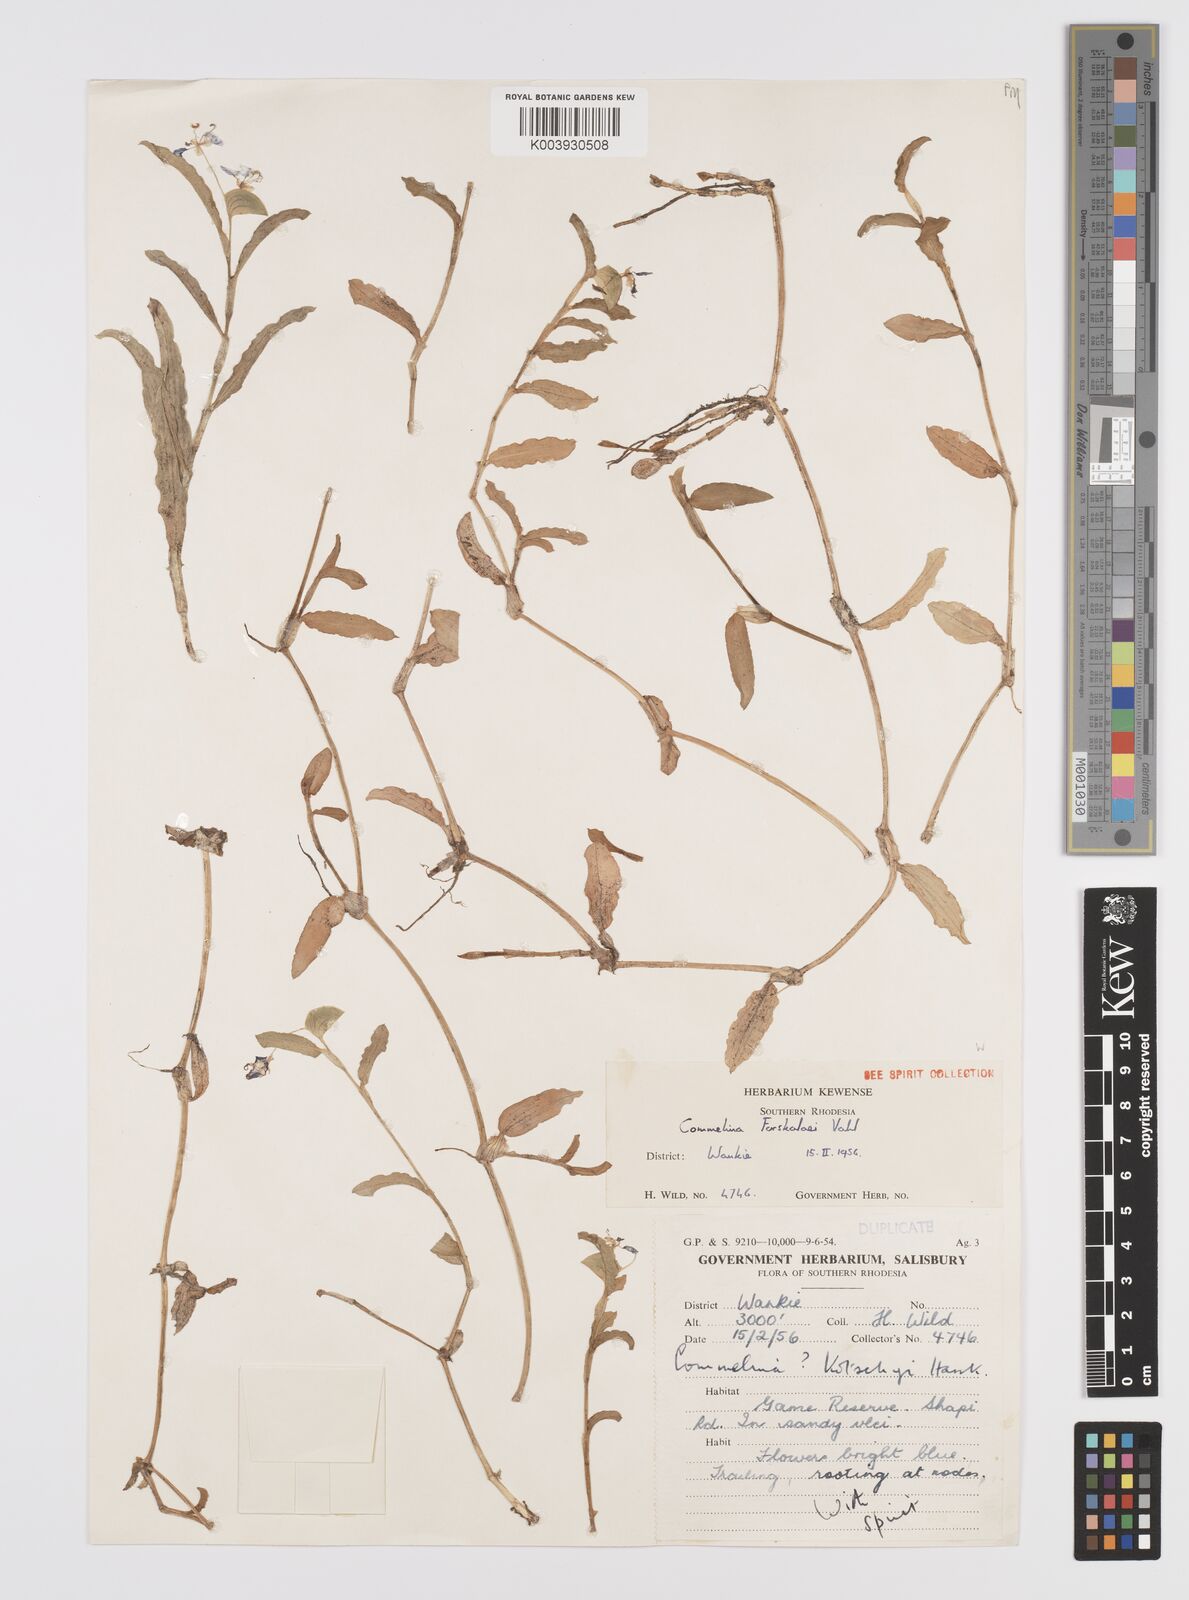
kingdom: Plantae
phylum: Tracheophyta
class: Liliopsida
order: Commelinales
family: Commelinaceae
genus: Commelina
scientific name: Commelina forskaolii
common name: Rat's ear
